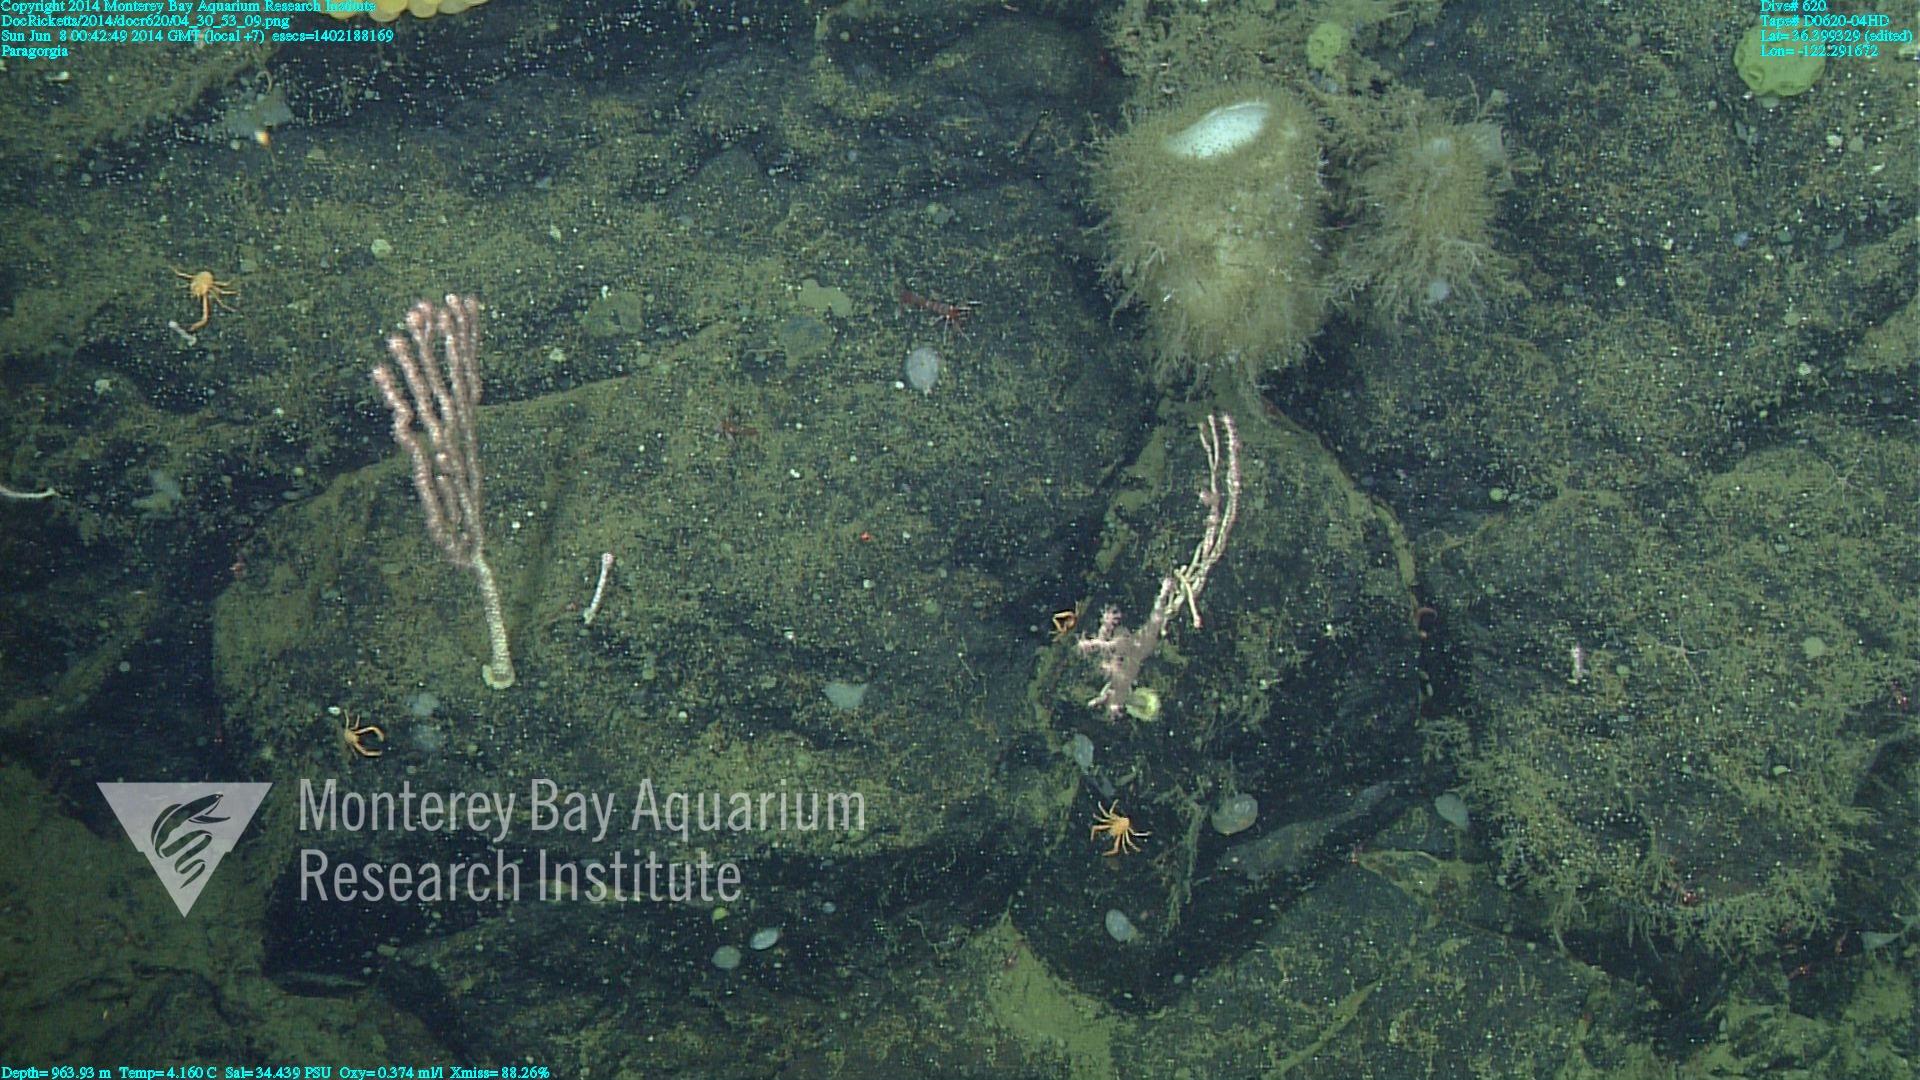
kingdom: Animalia
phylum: Cnidaria
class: Anthozoa
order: Scleralcyonacea
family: Coralliidae
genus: Sibogagorgia
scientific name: Sibogagorgia cauliflora
